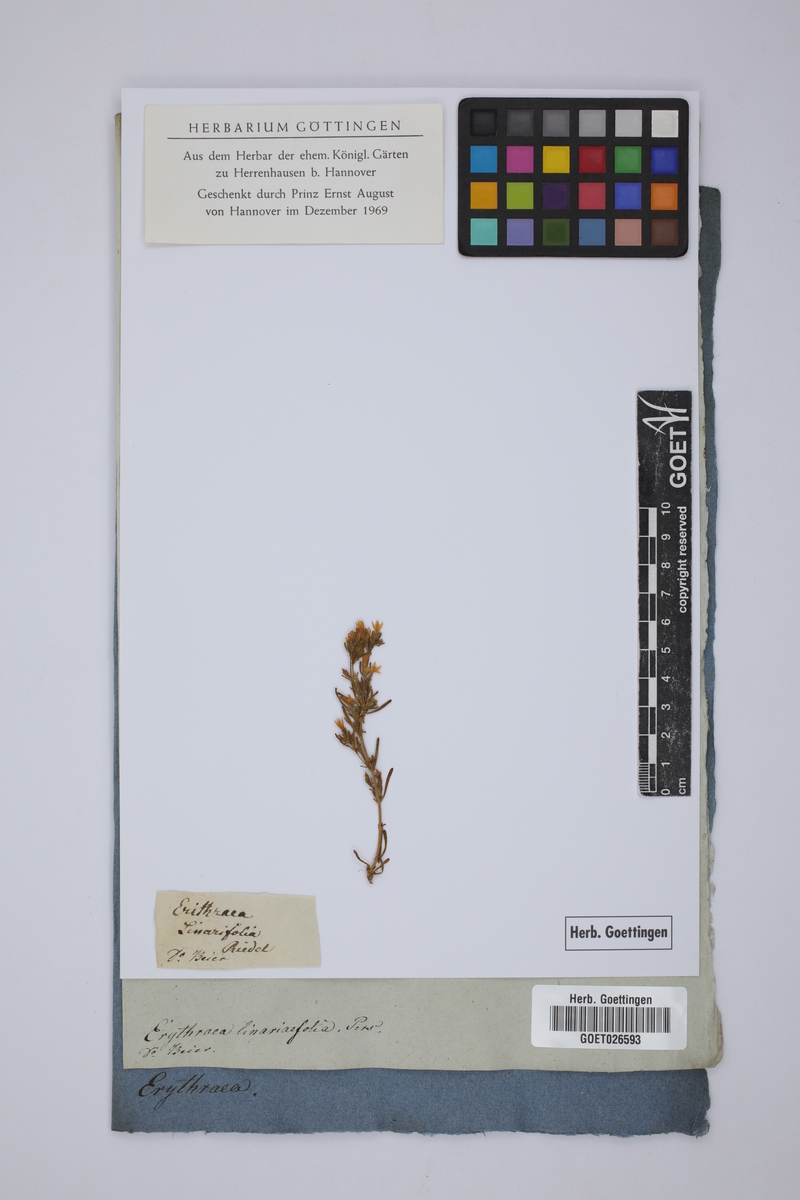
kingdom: Plantae
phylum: Tracheophyta
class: Magnoliopsida
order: Gentianales
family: Gentianaceae
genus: Centaurium
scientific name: Centaurium quadrifolium
